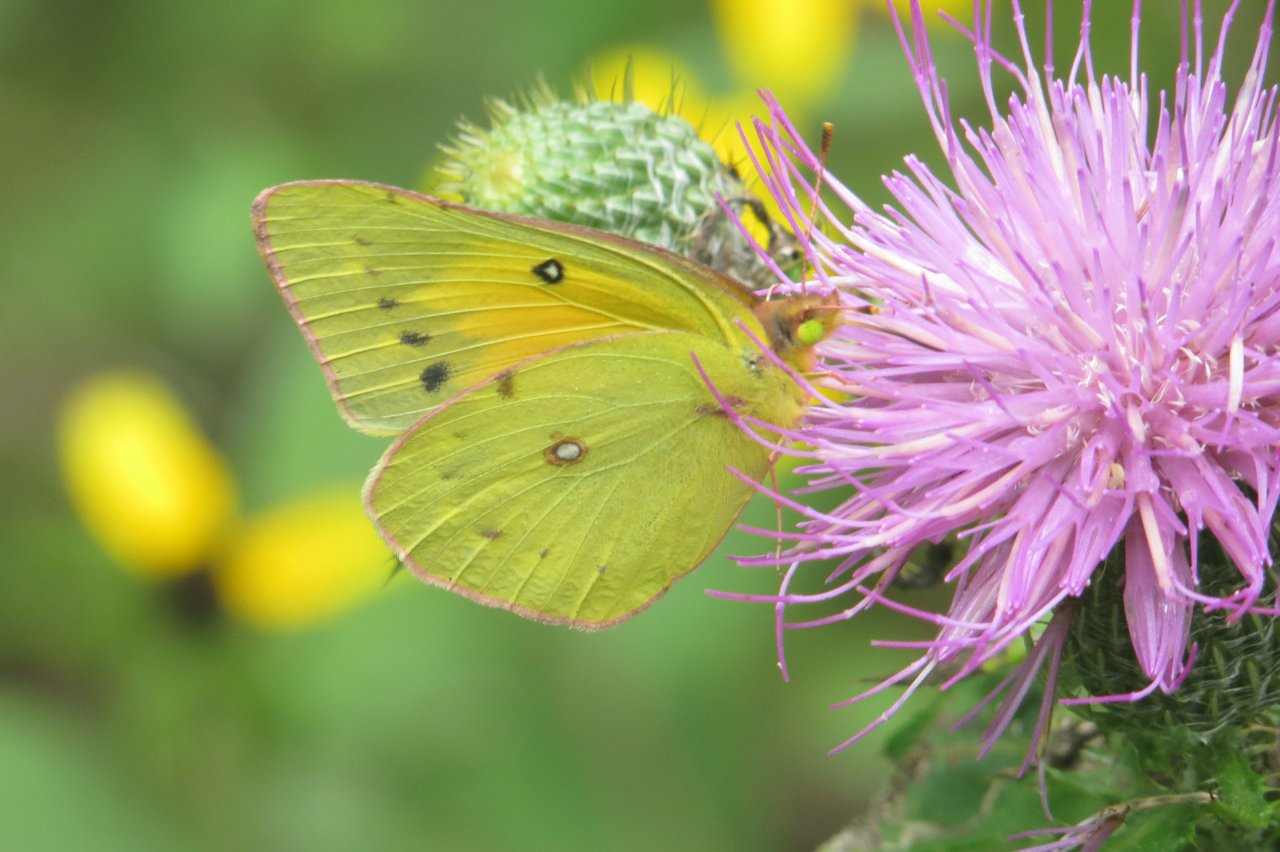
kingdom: Animalia
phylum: Arthropoda
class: Insecta
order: Lepidoptera
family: Pieridae
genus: Colias
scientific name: Colias eurytheme
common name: Orange Sulphur
